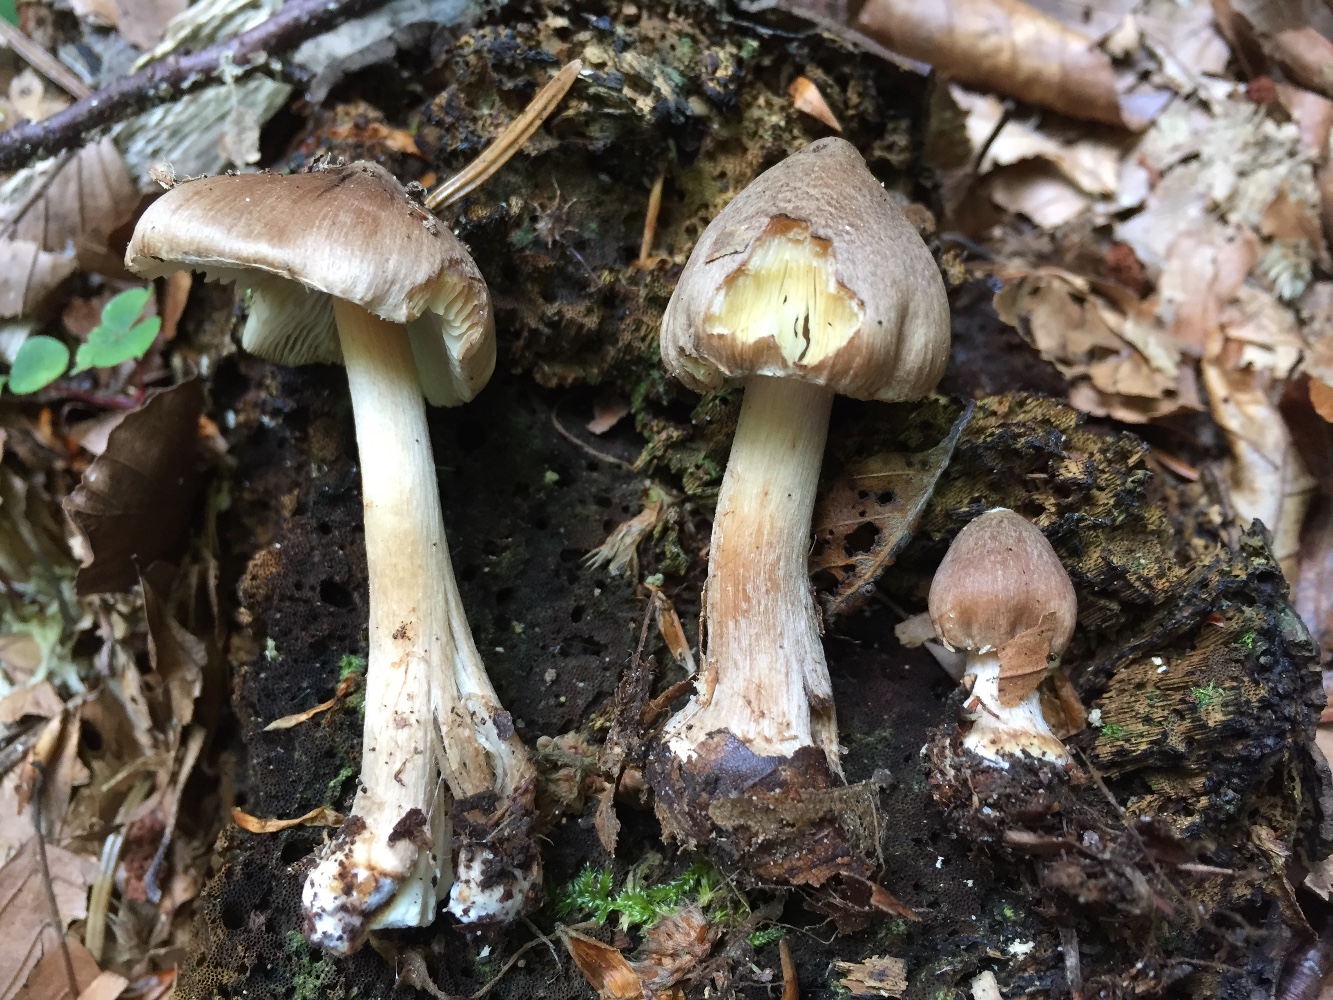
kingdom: Fungi
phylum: Basidiomycota
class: Agaricomycetes
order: Agaricales
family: Inocybaceae
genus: Inocybe
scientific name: Inocybe napipes
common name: roeknoldet trævlhat
